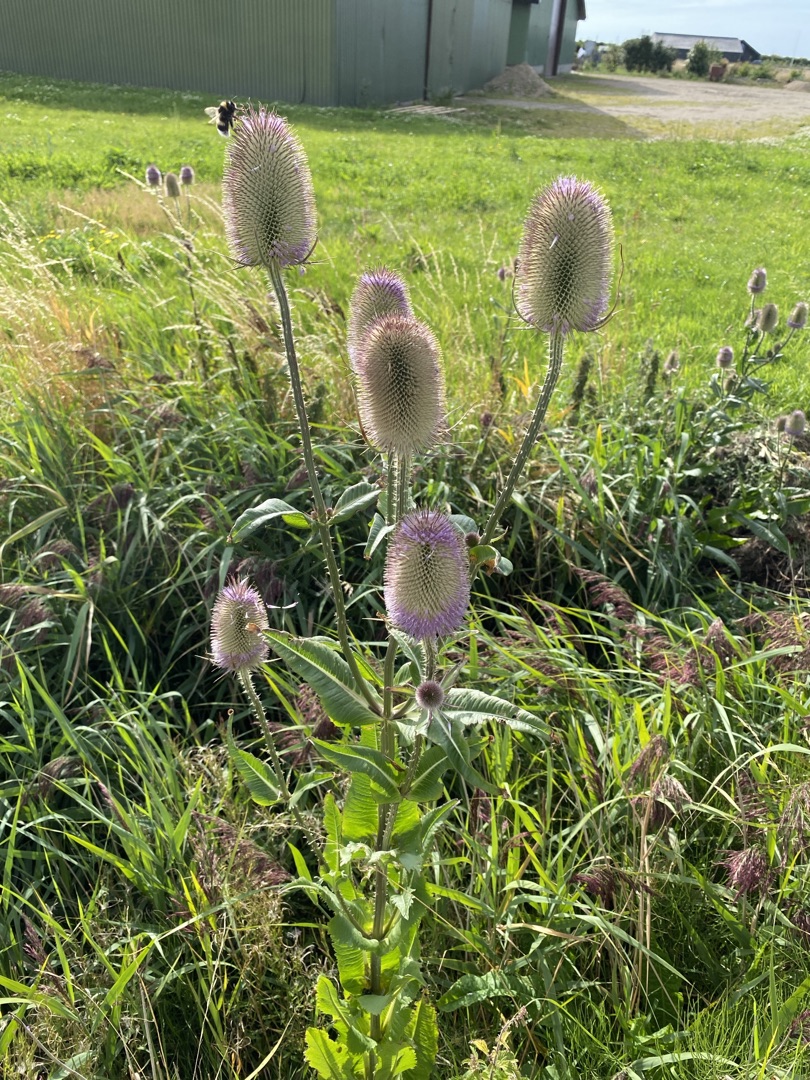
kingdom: Plantae
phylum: Tracheophyta
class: Magnoliopsida
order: Dipsacales
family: Caprifoliaceae
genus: Dipsacus
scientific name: Dipsacus fullonum
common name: Gærde-kartebolle
